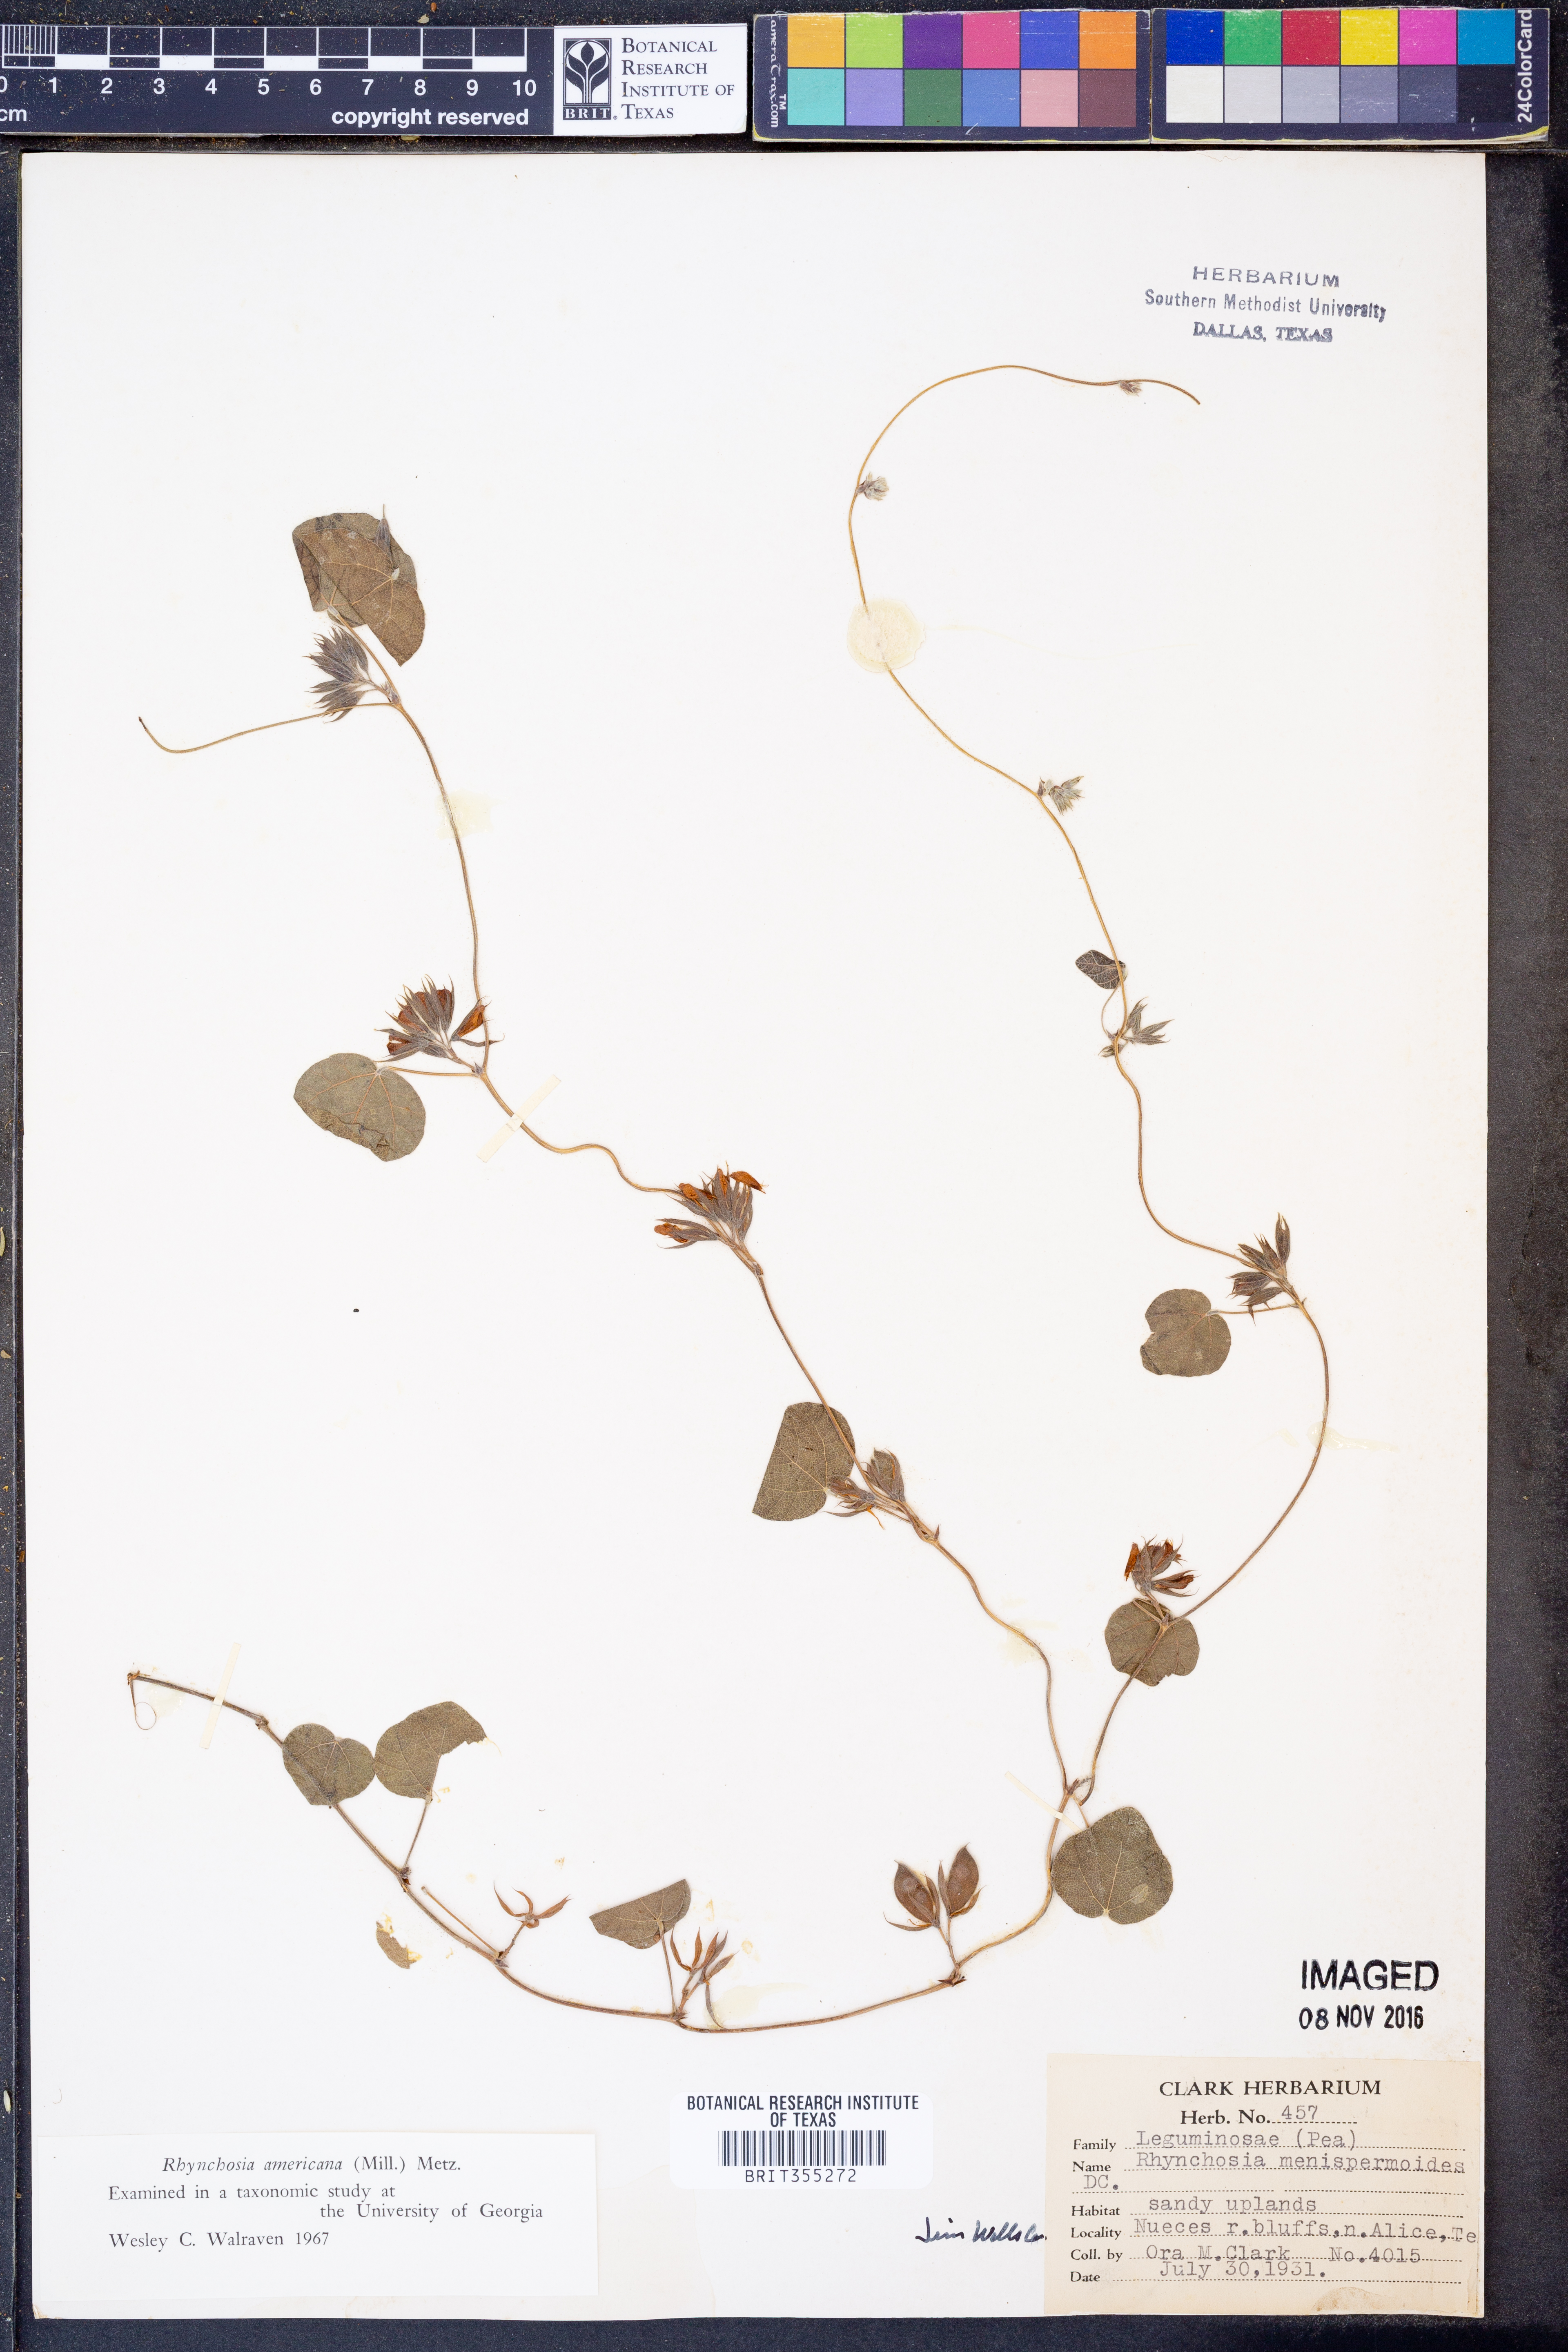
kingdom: Plantae
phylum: Tracheophyta
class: Magnoliopsida
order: Fabales
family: Fabaceae
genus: Rhynchosia
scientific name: Rhynchosia americana
